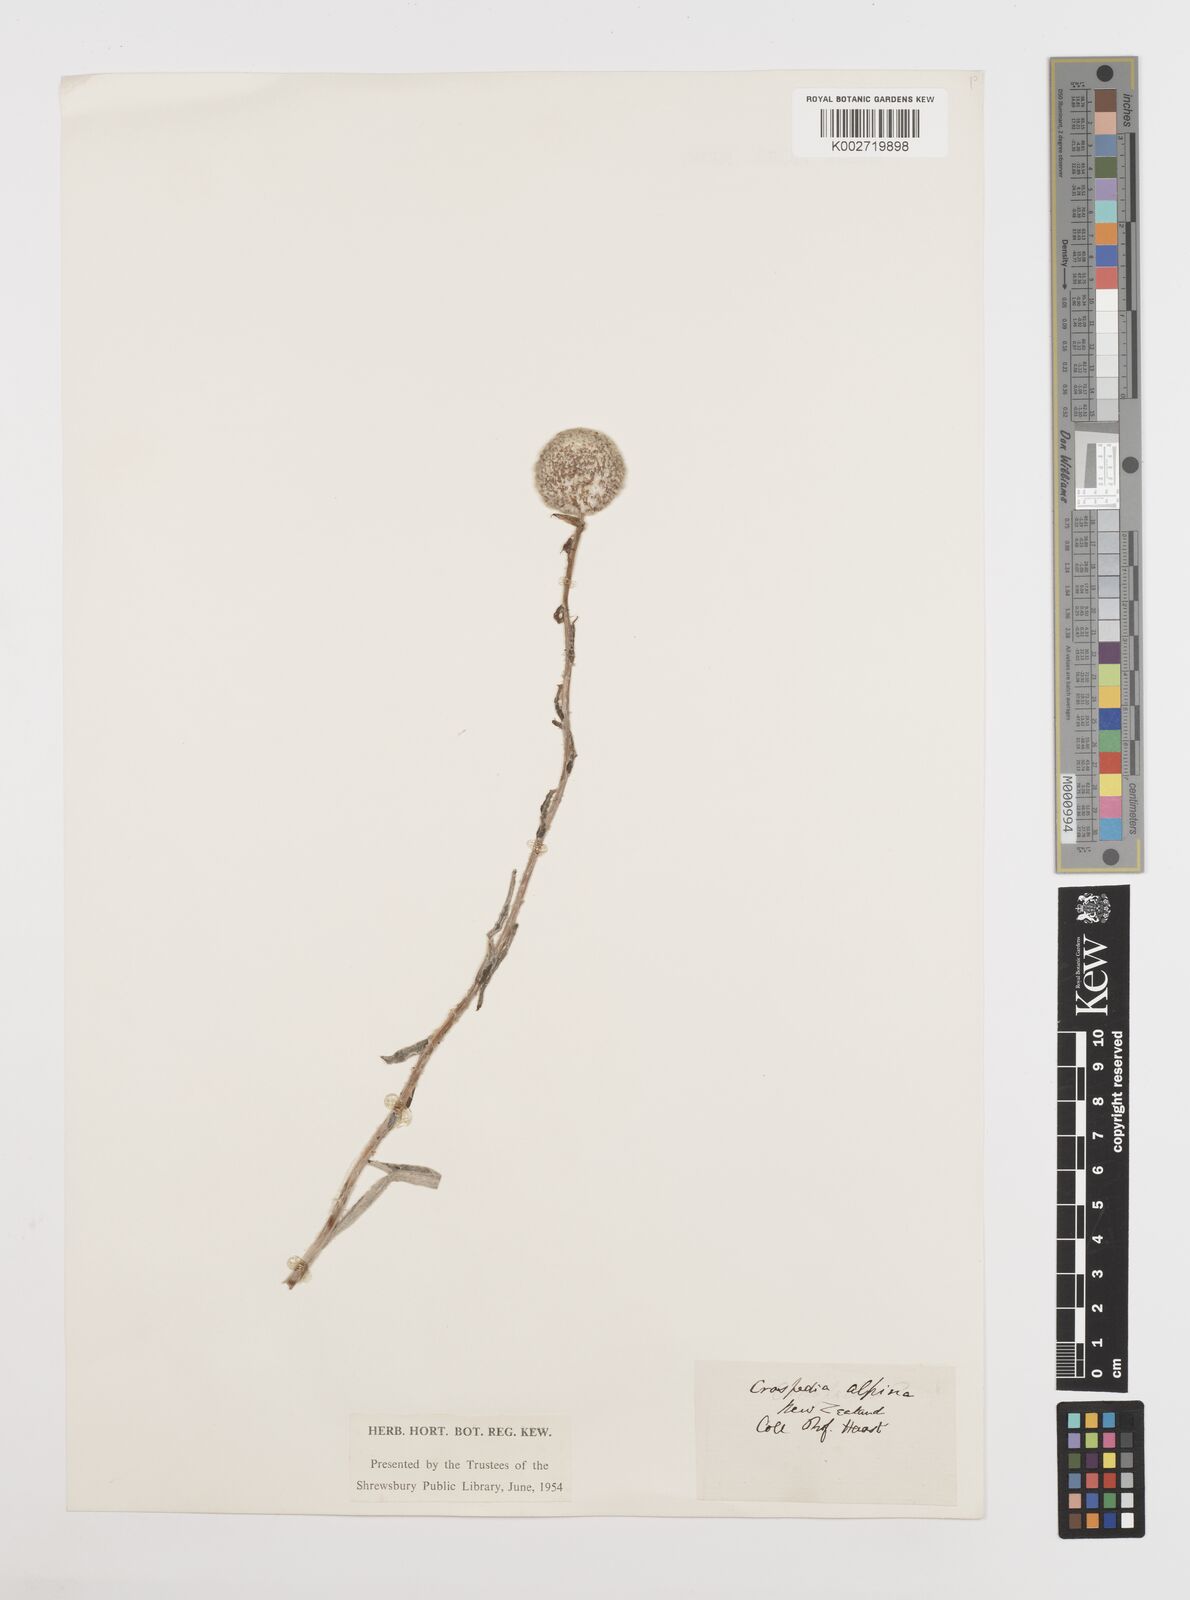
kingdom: Plantae
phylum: Tracheophyta
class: Magnoliopsida
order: Asterales
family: Asteraceae
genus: Craspedia
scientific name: Craspedia uniflora
